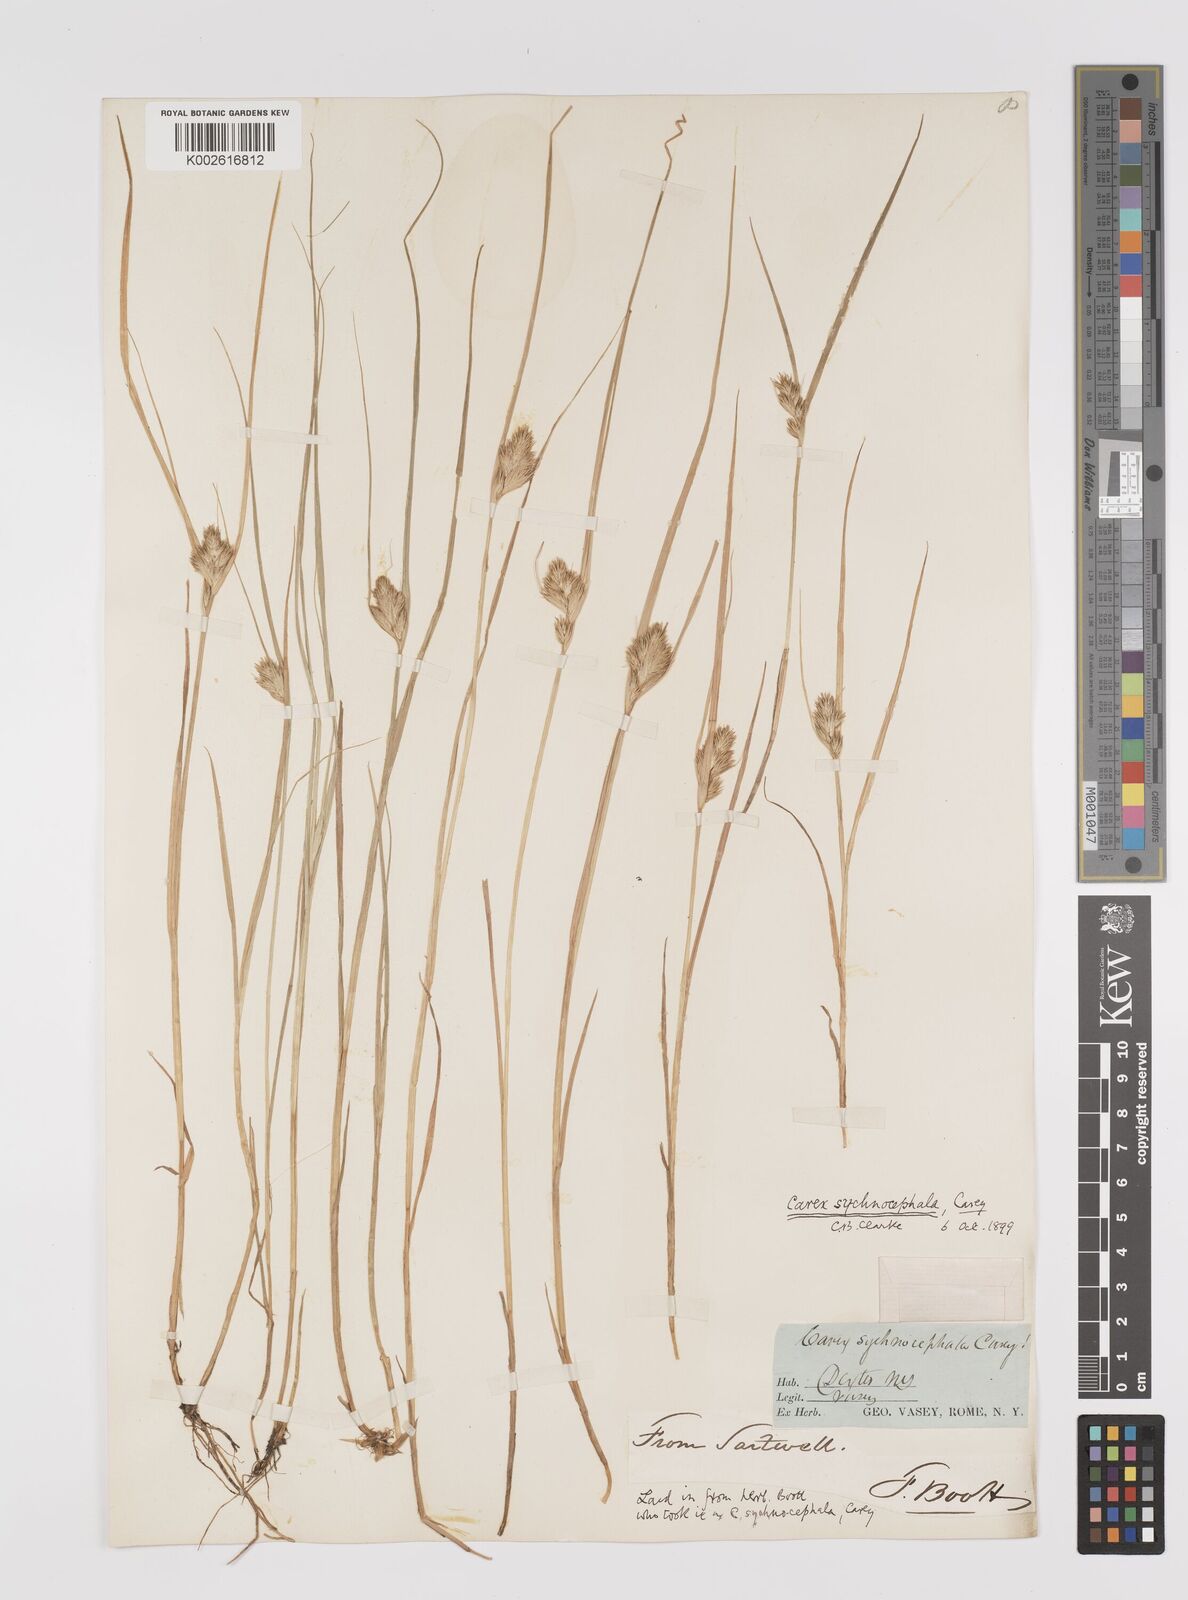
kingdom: Plantae
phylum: Tracheophyta
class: Liliopsida
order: Poales
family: Cyperaceae
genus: Carex
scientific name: Carex sychnocephala
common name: Dense long-beaked sedge
